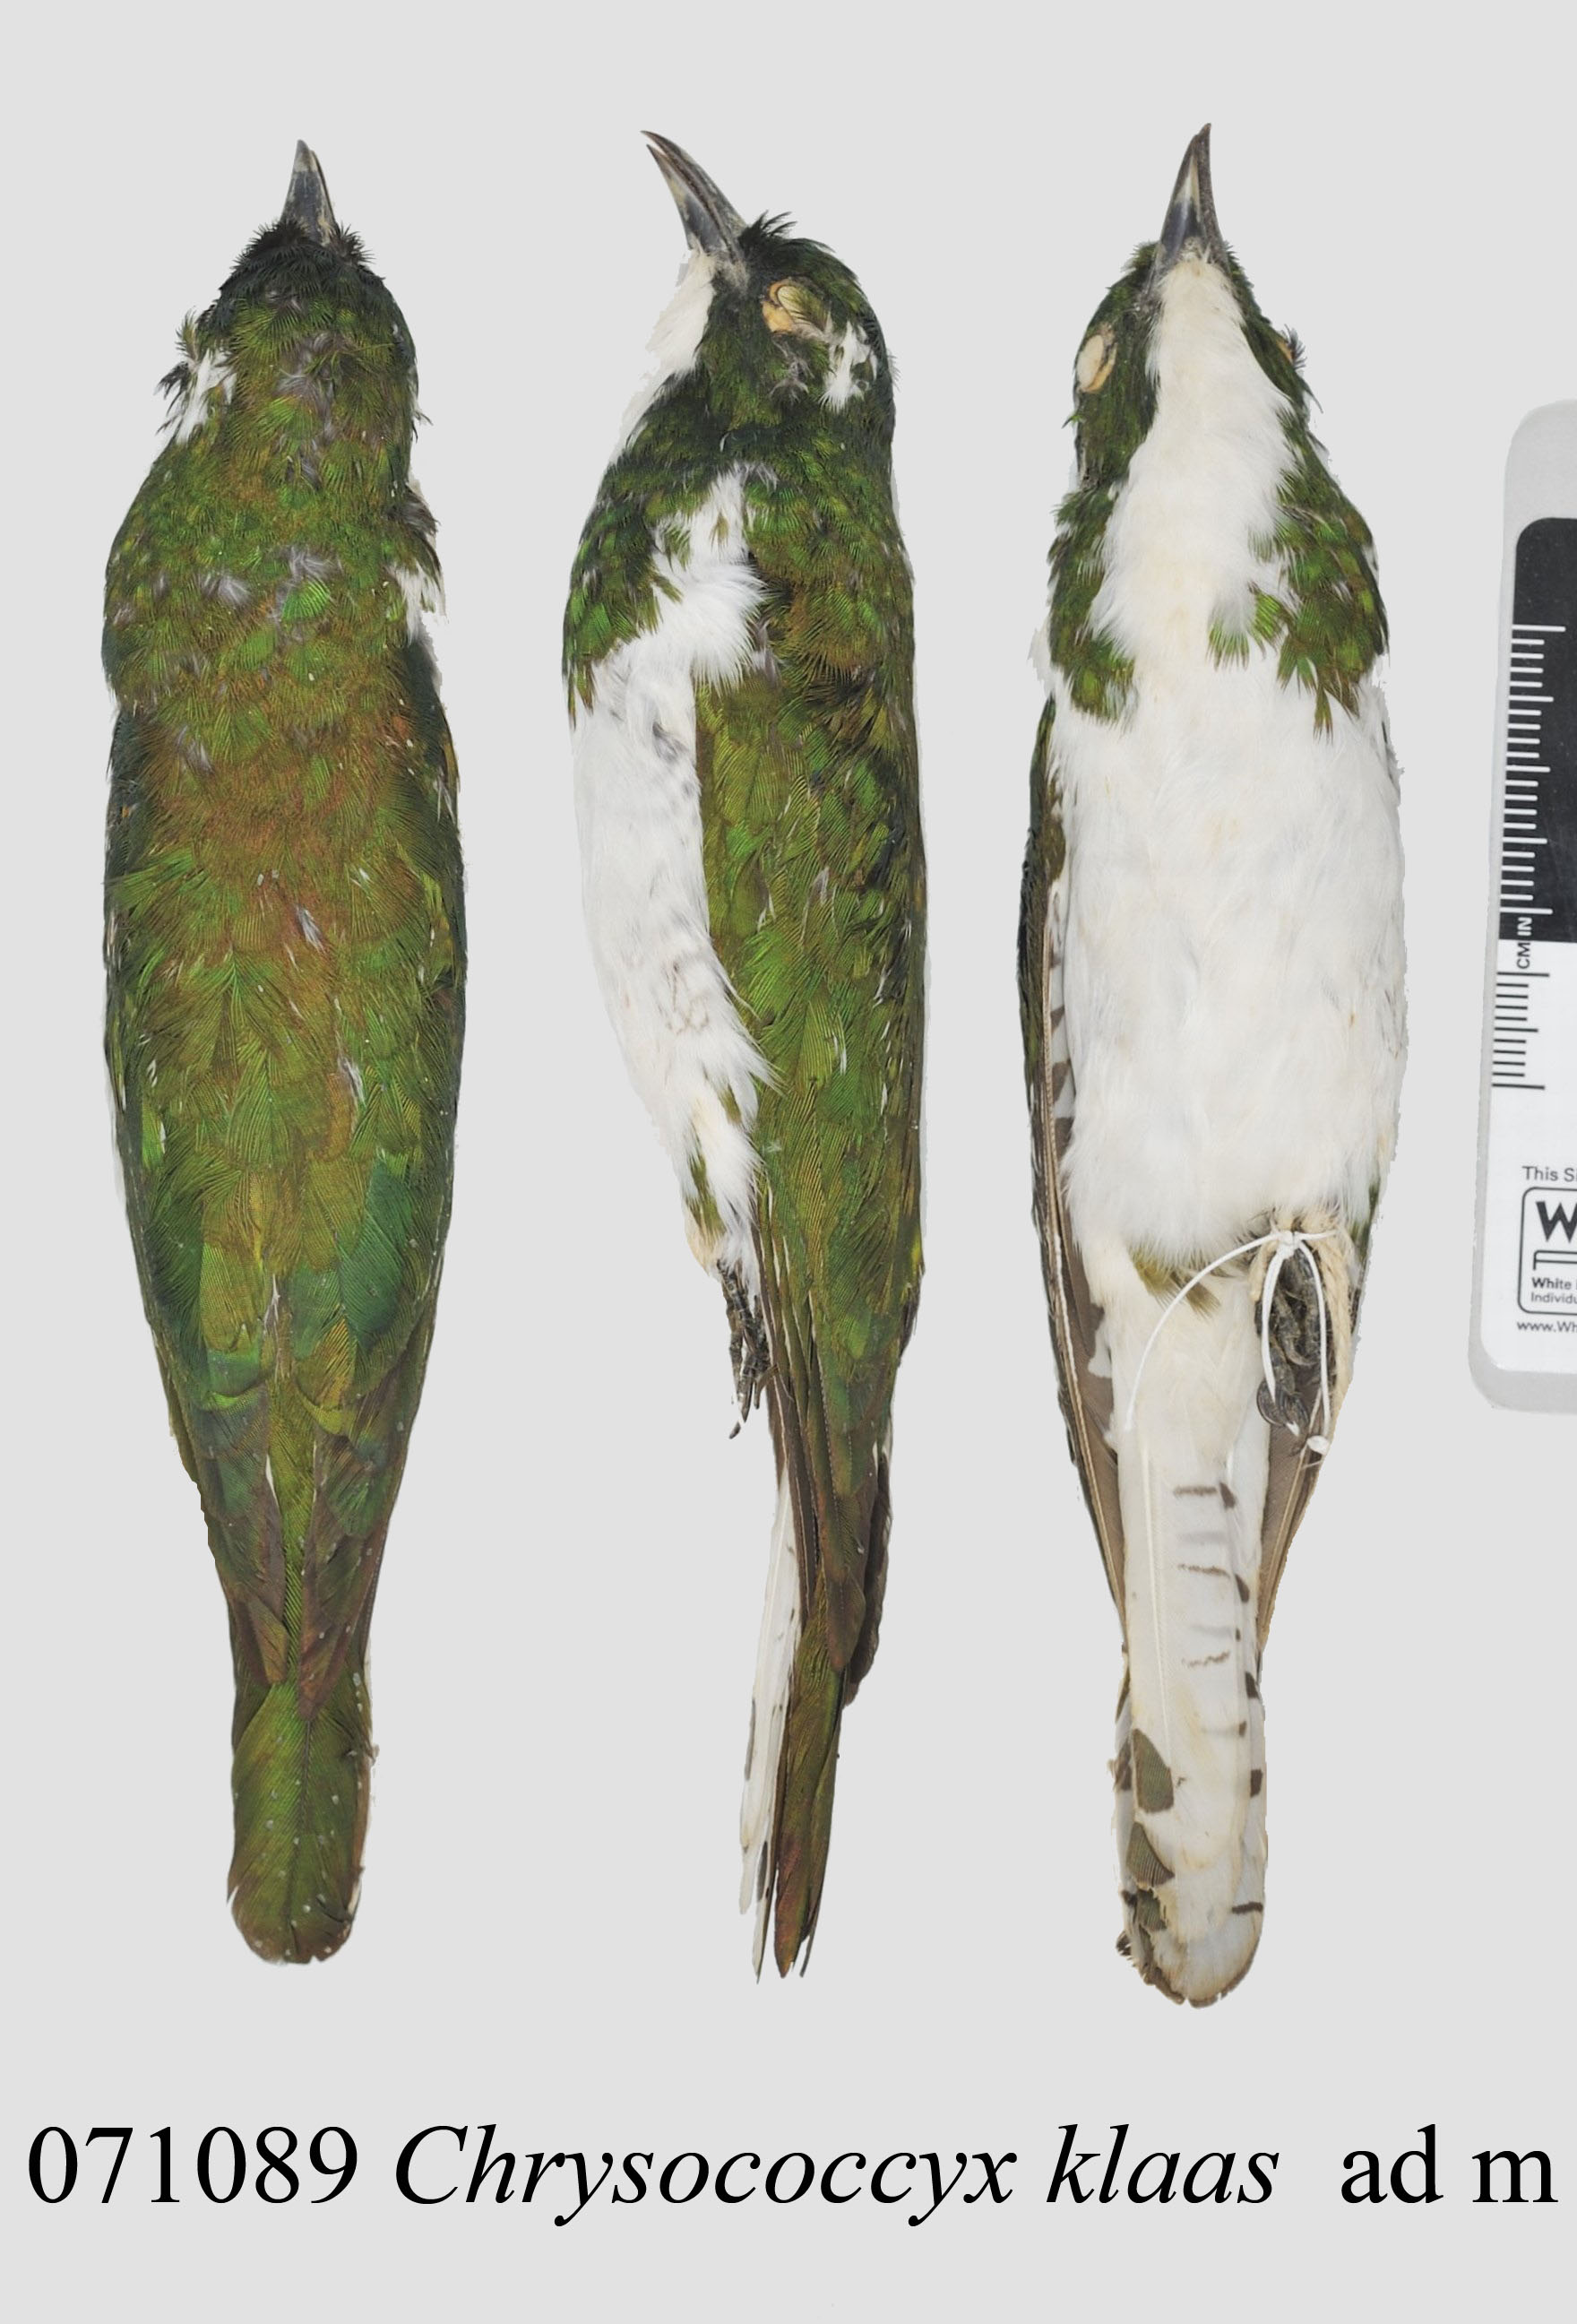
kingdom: Animalia
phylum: Chordata
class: Aves
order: Cuculiformes
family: Cuculidae
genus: Chrysococcyx
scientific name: Chrysococcyx klaas
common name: Klaas's cuckoo
